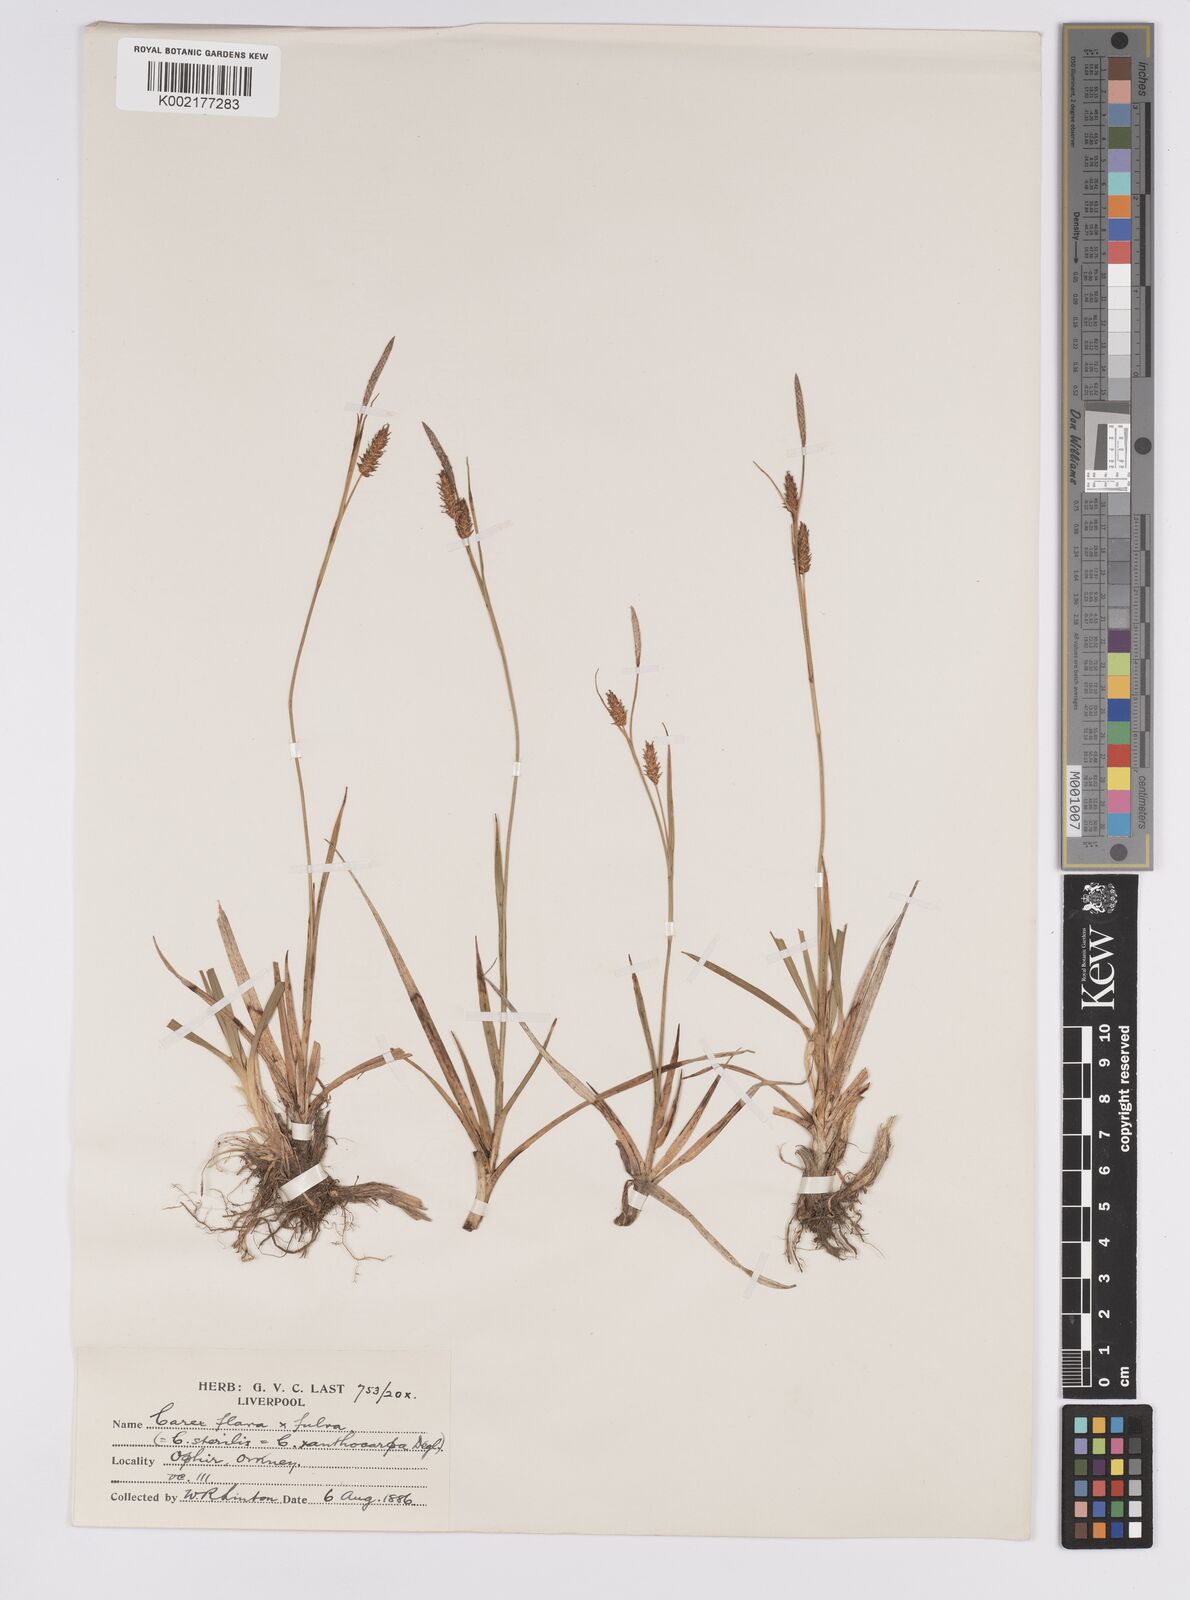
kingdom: Plantae
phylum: Tracheophyta
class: Liliopsida
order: Poales
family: Cyperaceae
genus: Carex
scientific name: Carex hostiana
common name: Tawny sedge
